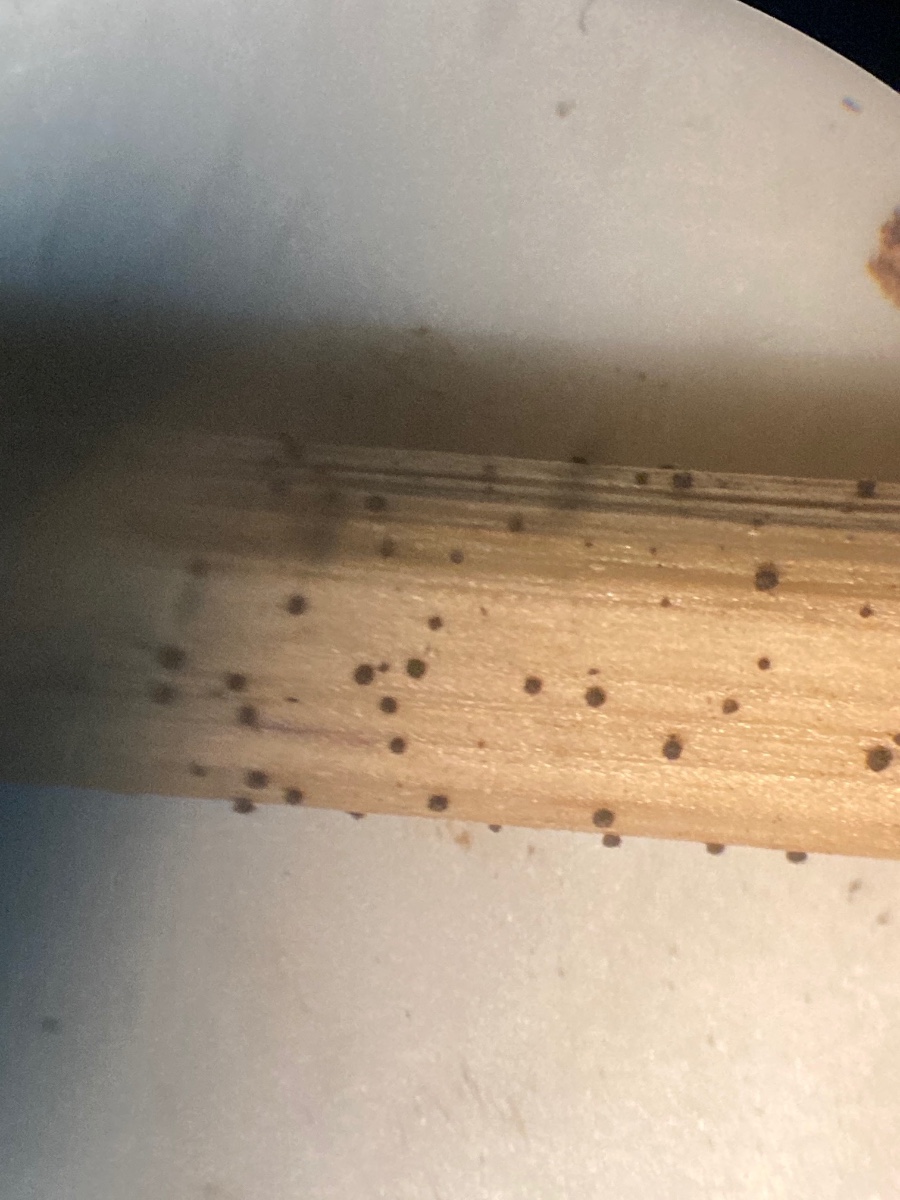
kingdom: Fungi
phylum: Ascomycota
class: Leotiomycetes
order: Helotiales
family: Solenopeziaceae
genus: Lasiobelonium
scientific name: Lasiobelonium nidulus
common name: rede-frynseskive
